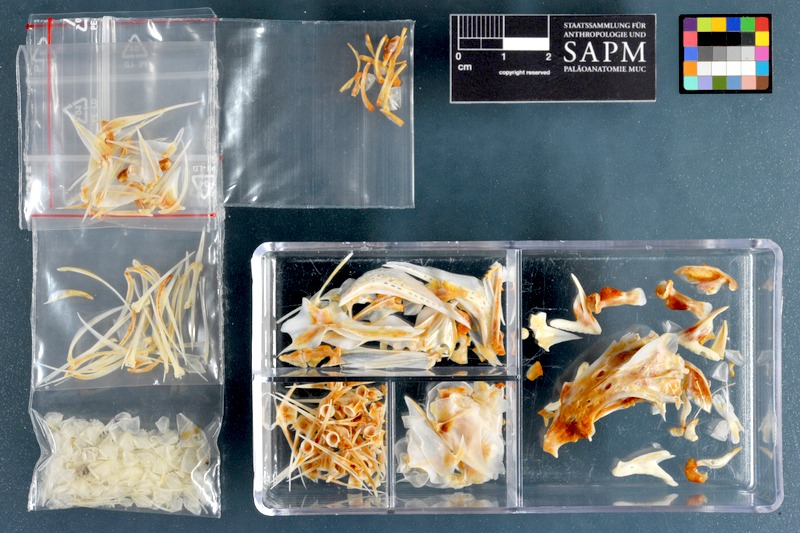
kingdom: Animalia
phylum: Chordata
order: Perciformes
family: Lethrinidae
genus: Lethrinus
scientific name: Lethrinus miniatus
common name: Trumpet emperor
